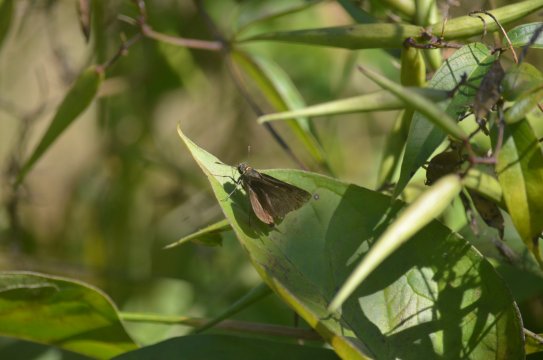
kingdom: Animalia
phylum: Arthropoda
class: Insecta
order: Lepidoptera
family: Lycaenidae
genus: Elkalyce
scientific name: Elkalyce comyntas
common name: Eastern Tailed-Blue
